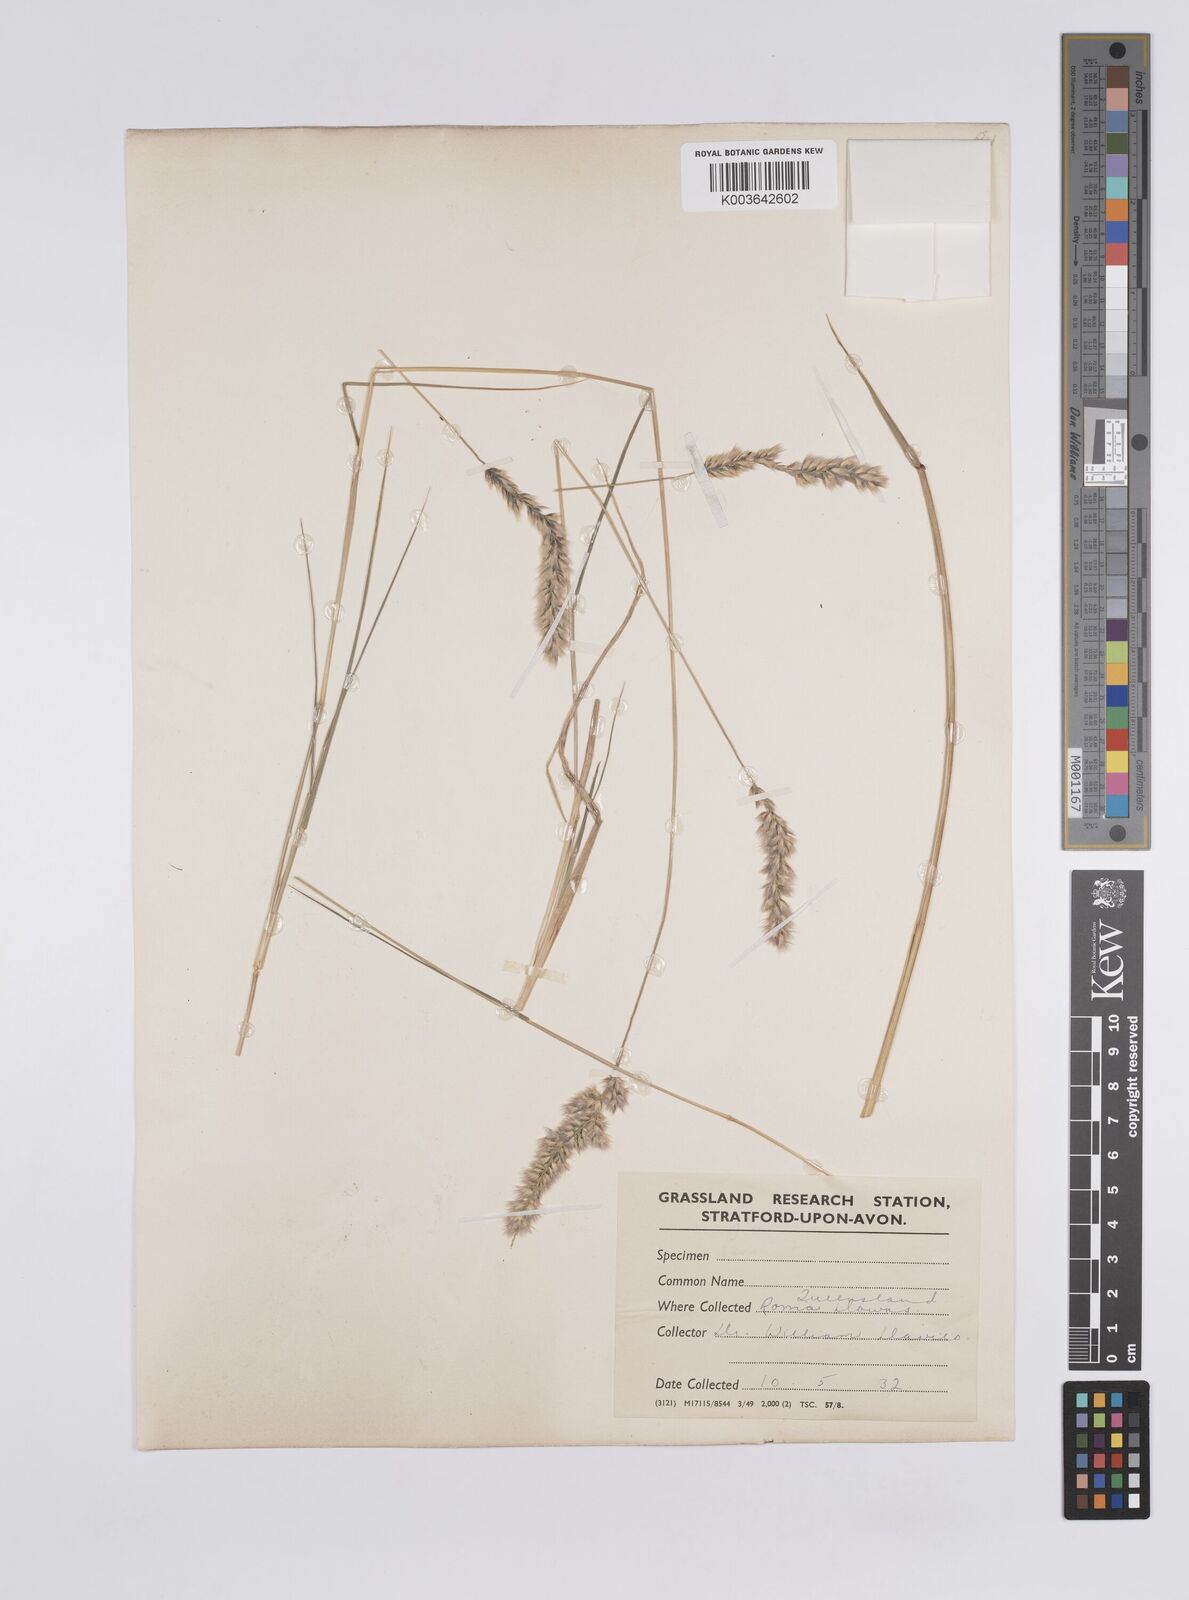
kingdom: Plantae
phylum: Tracheophyta
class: Liliopsida
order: Poales
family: Poaceae
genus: Enneapogon
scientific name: Enneapogon truncatus
